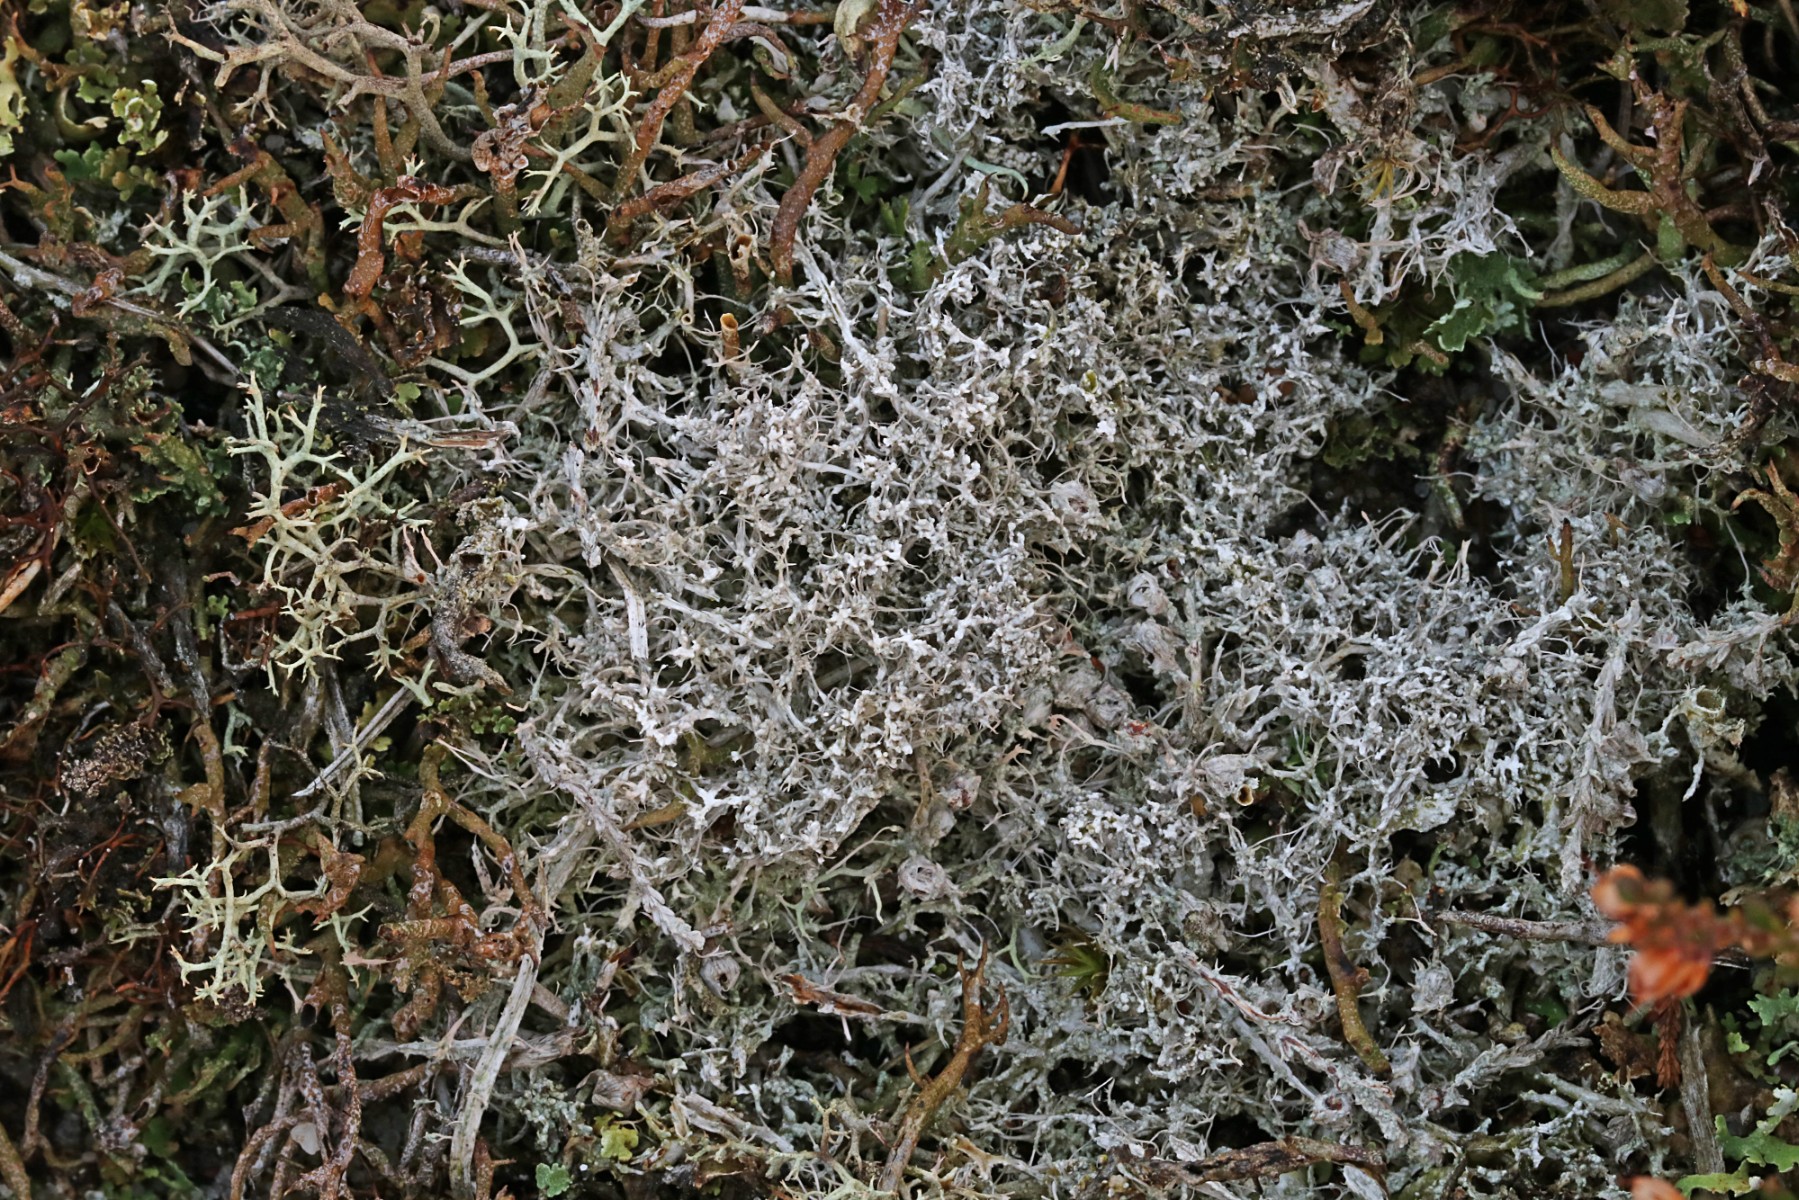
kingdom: Fungi
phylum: Ascomycota
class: Lecanoromycetes
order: Pertusariales
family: Ochrolechiaceae
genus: Ochrolechia
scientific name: Ochrolechia frigida
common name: fjeld-blegskivelav
